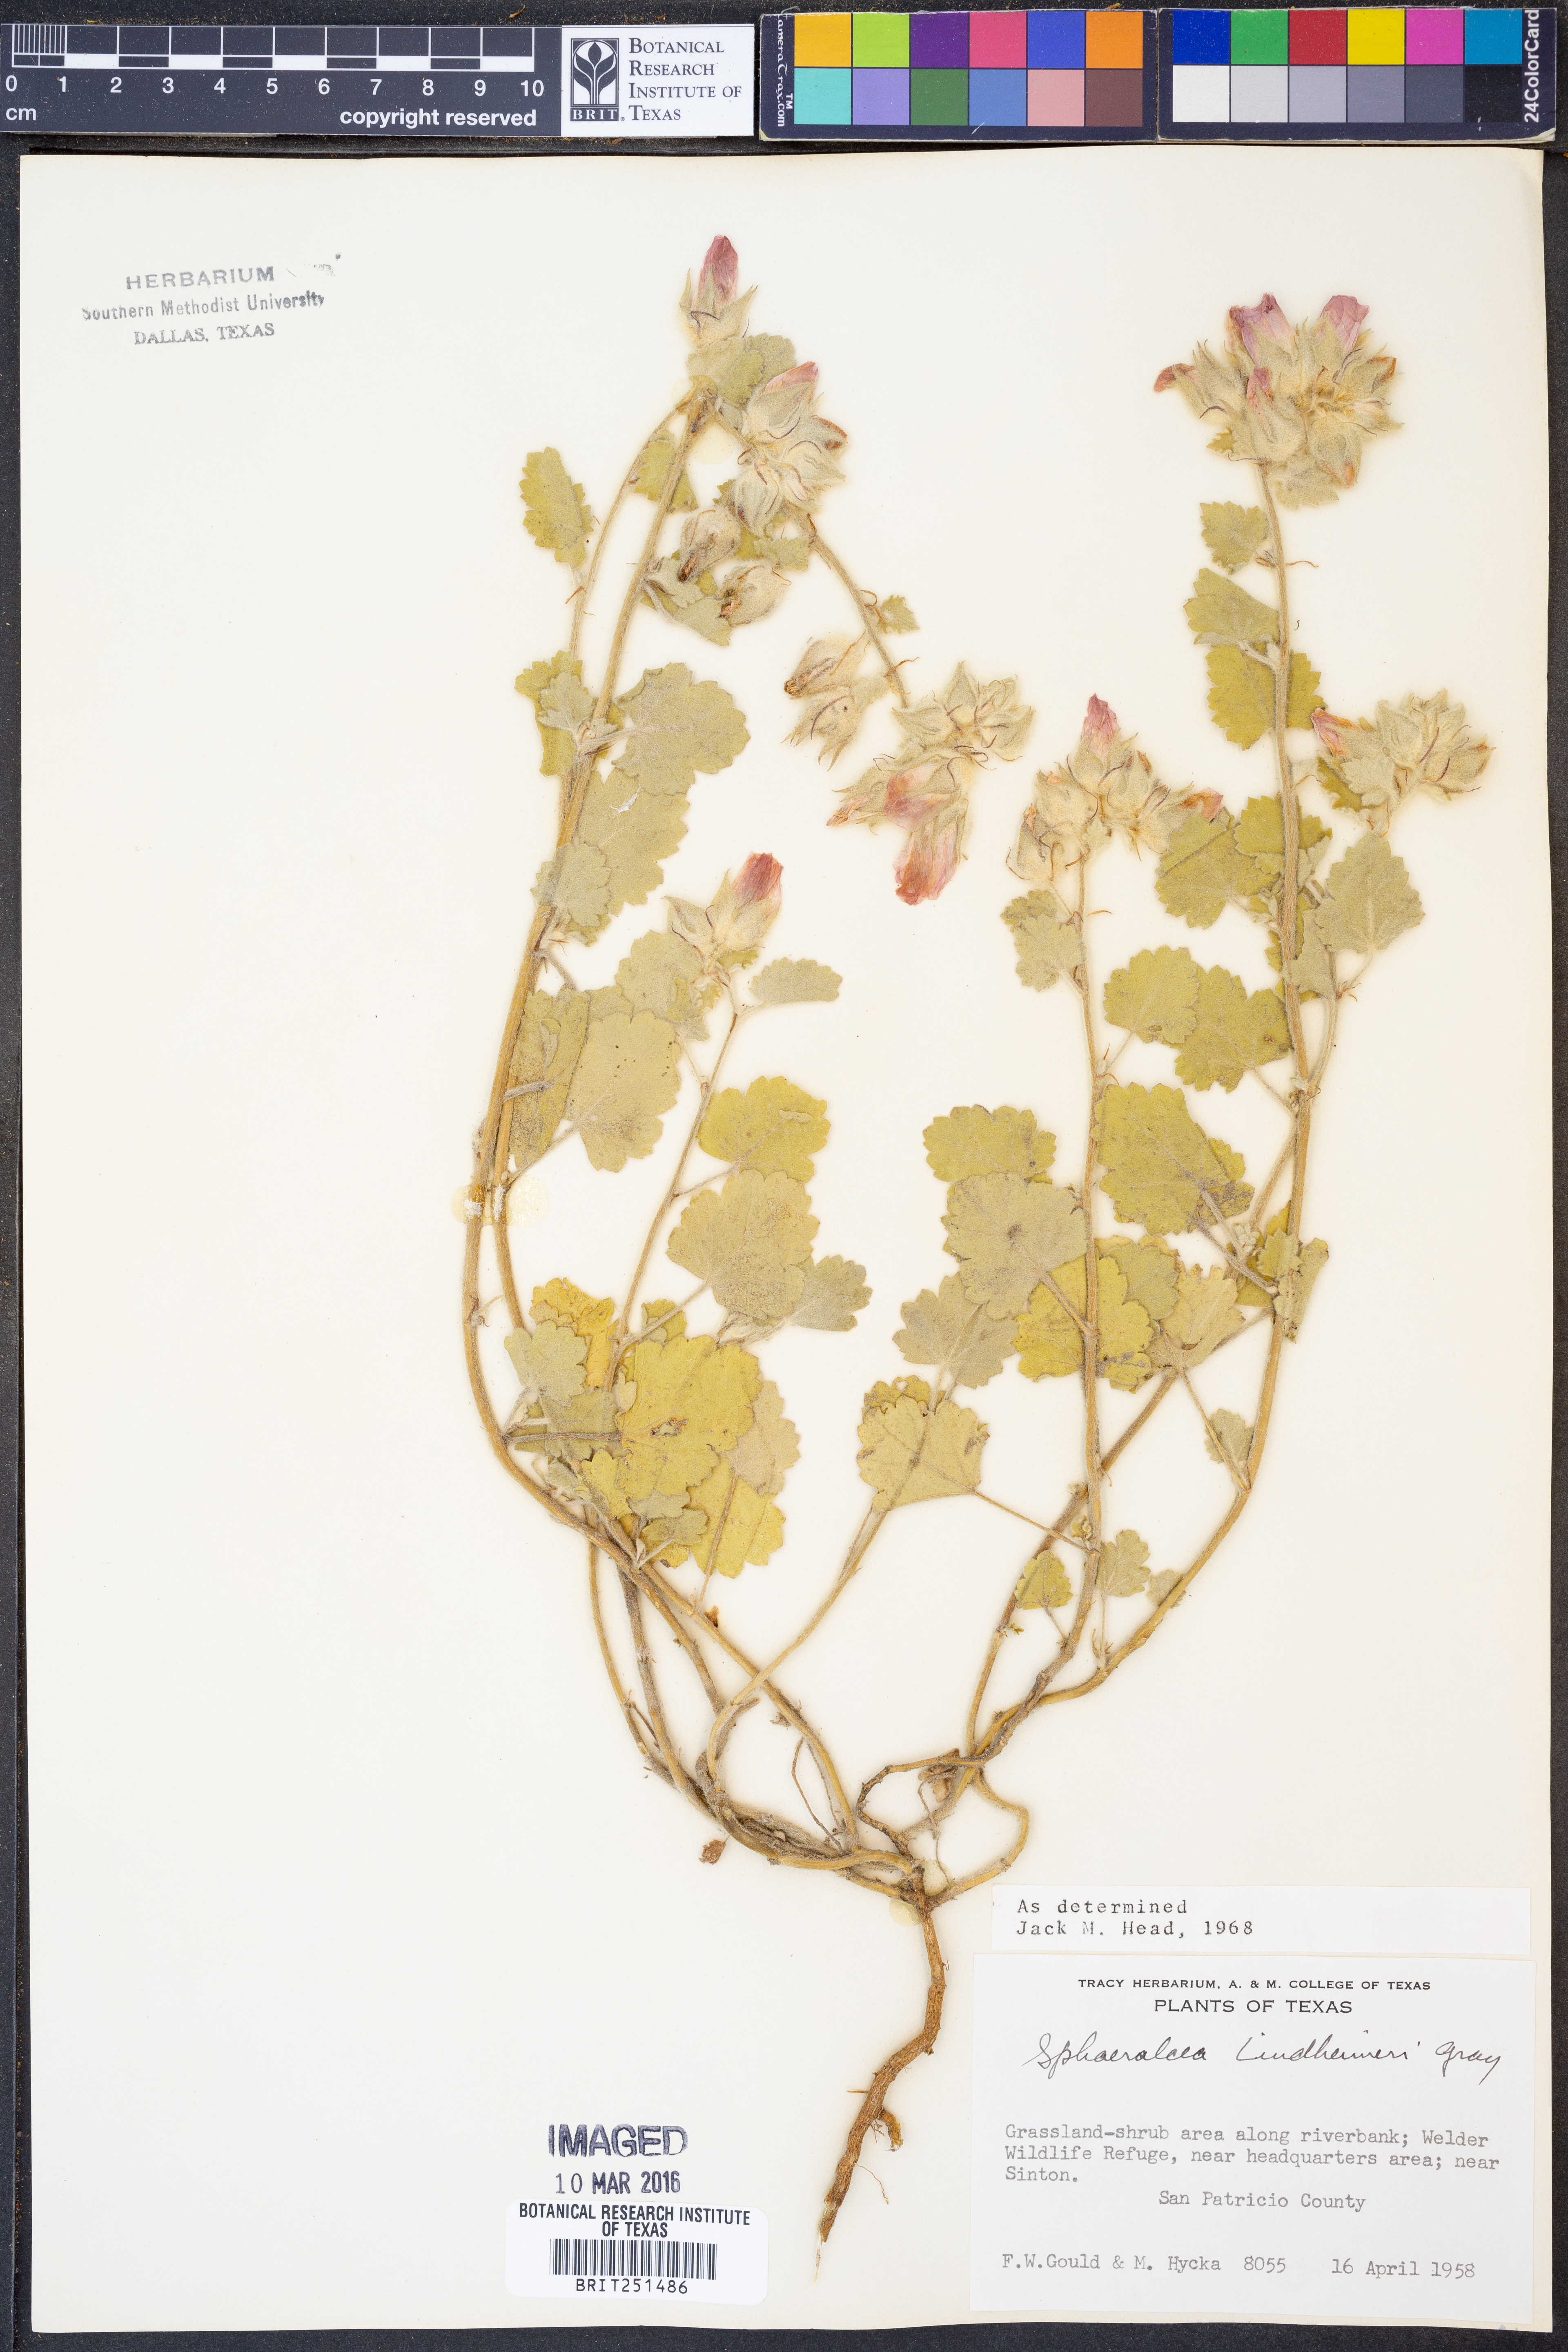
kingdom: Plantae
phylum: Tracheophyta
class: Magnoliopsida
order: Malvales
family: Malvaceae
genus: Sphaeralcea
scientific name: Sphaeralcea lindheimeri
